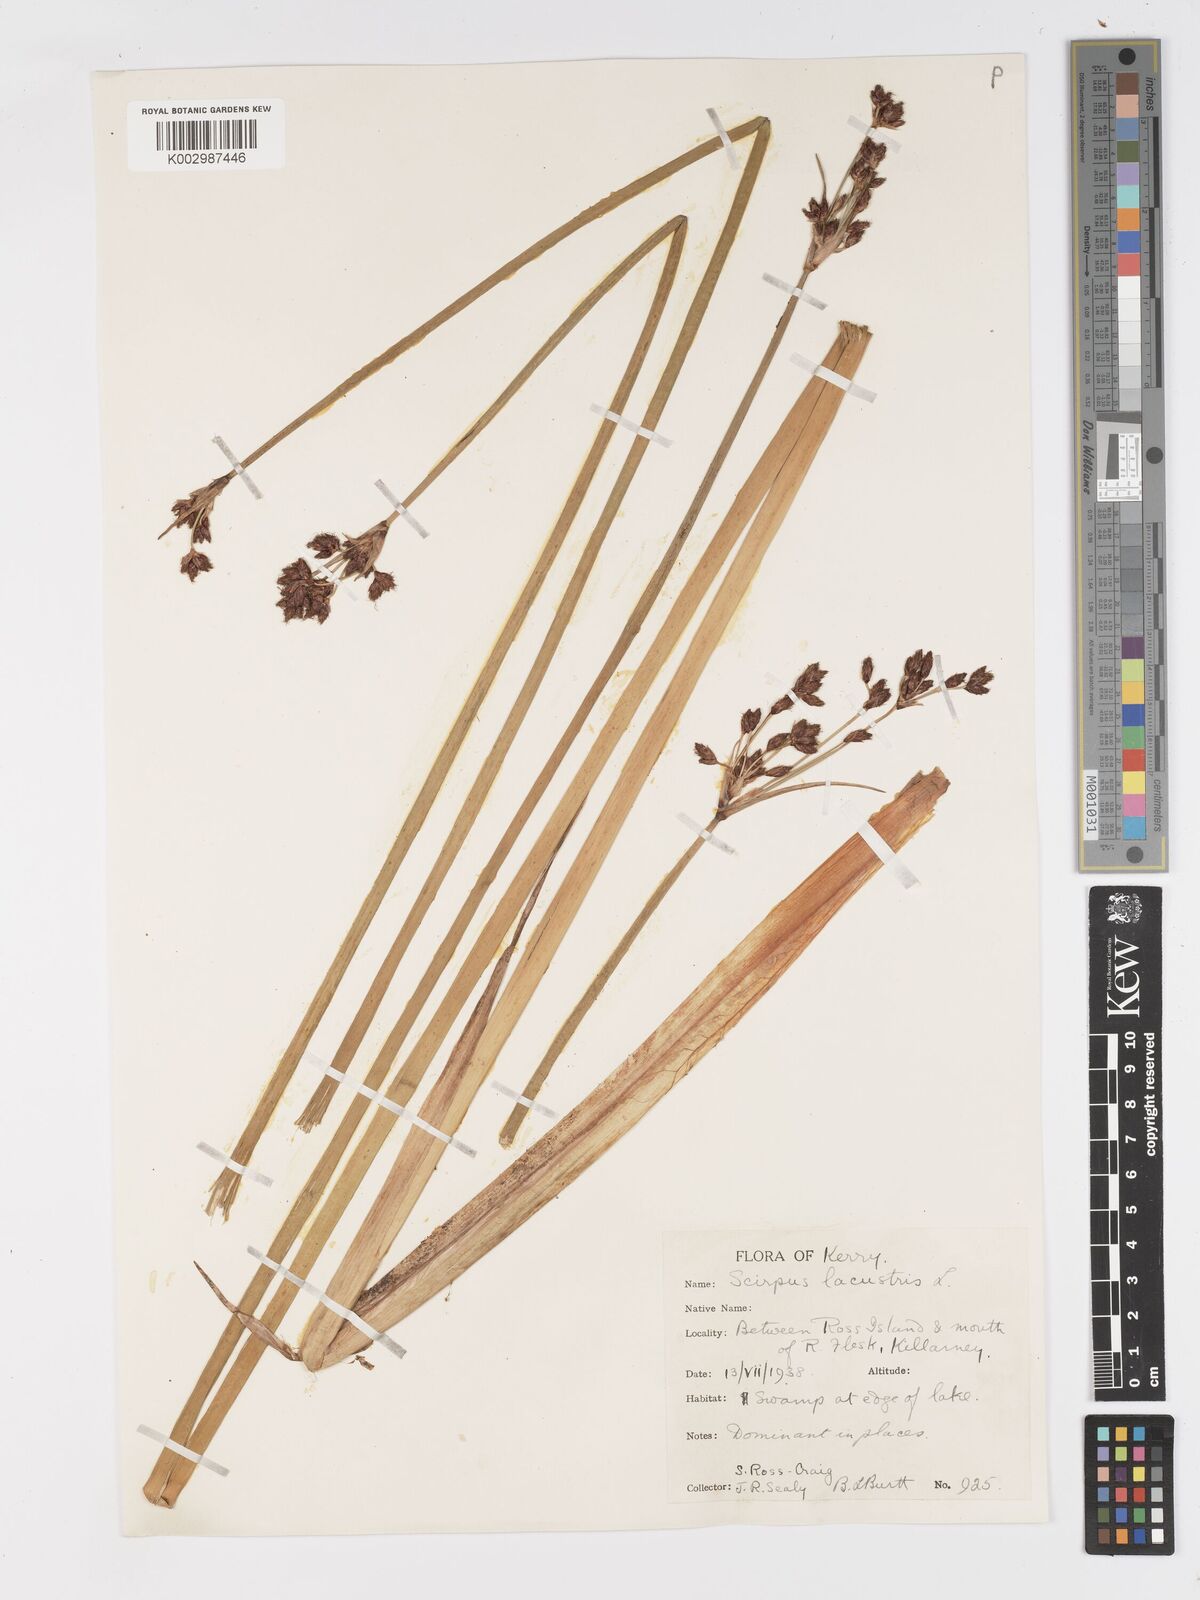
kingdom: Plantae
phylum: Tracheophyta
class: Liliopsida
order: Poales
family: Cyperaceae
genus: Schoenoplectus
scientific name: Schoenoplectus lacustris
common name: Common club-rush
